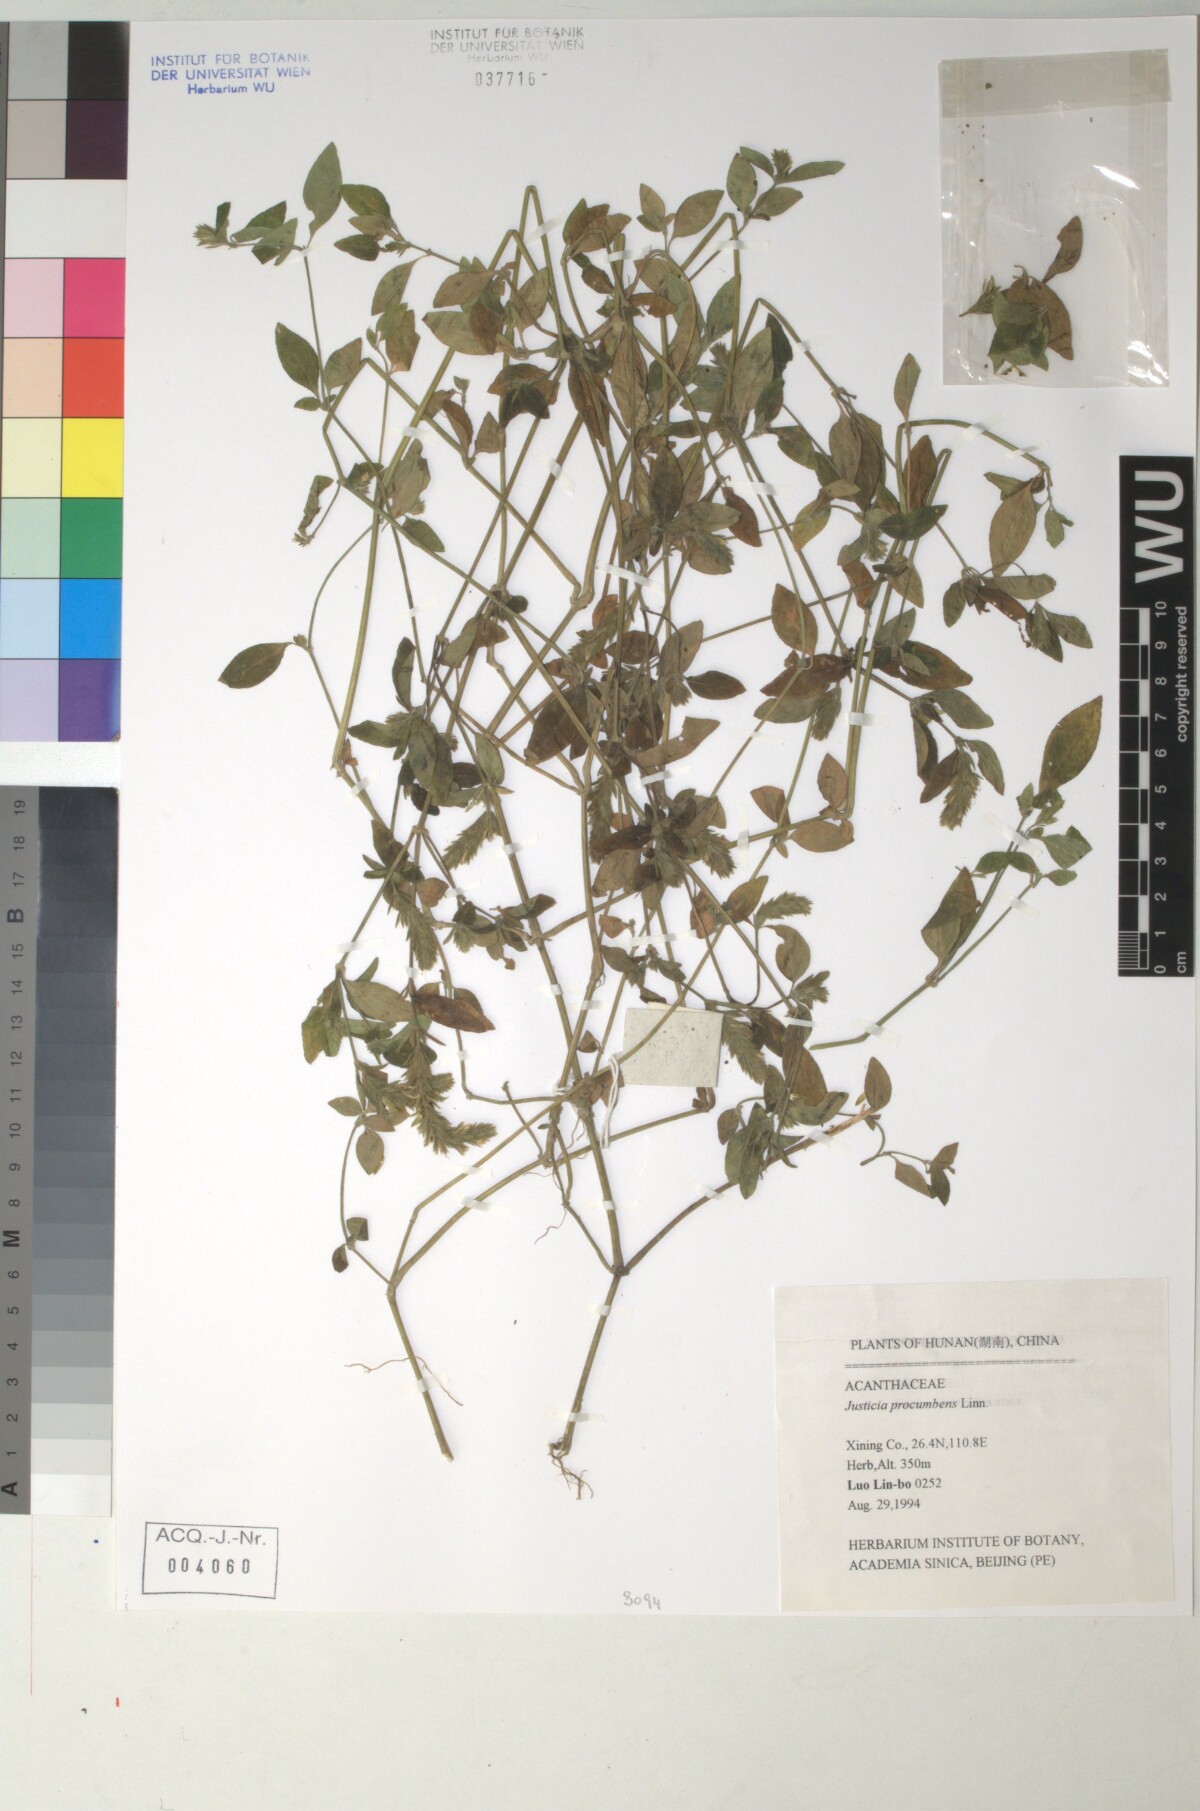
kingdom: Plantae
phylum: Tracheophyta
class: Magnoliopsida
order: Lamiales
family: Acanthaceae
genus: Rostellularia
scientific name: Rostellularia procumbens
